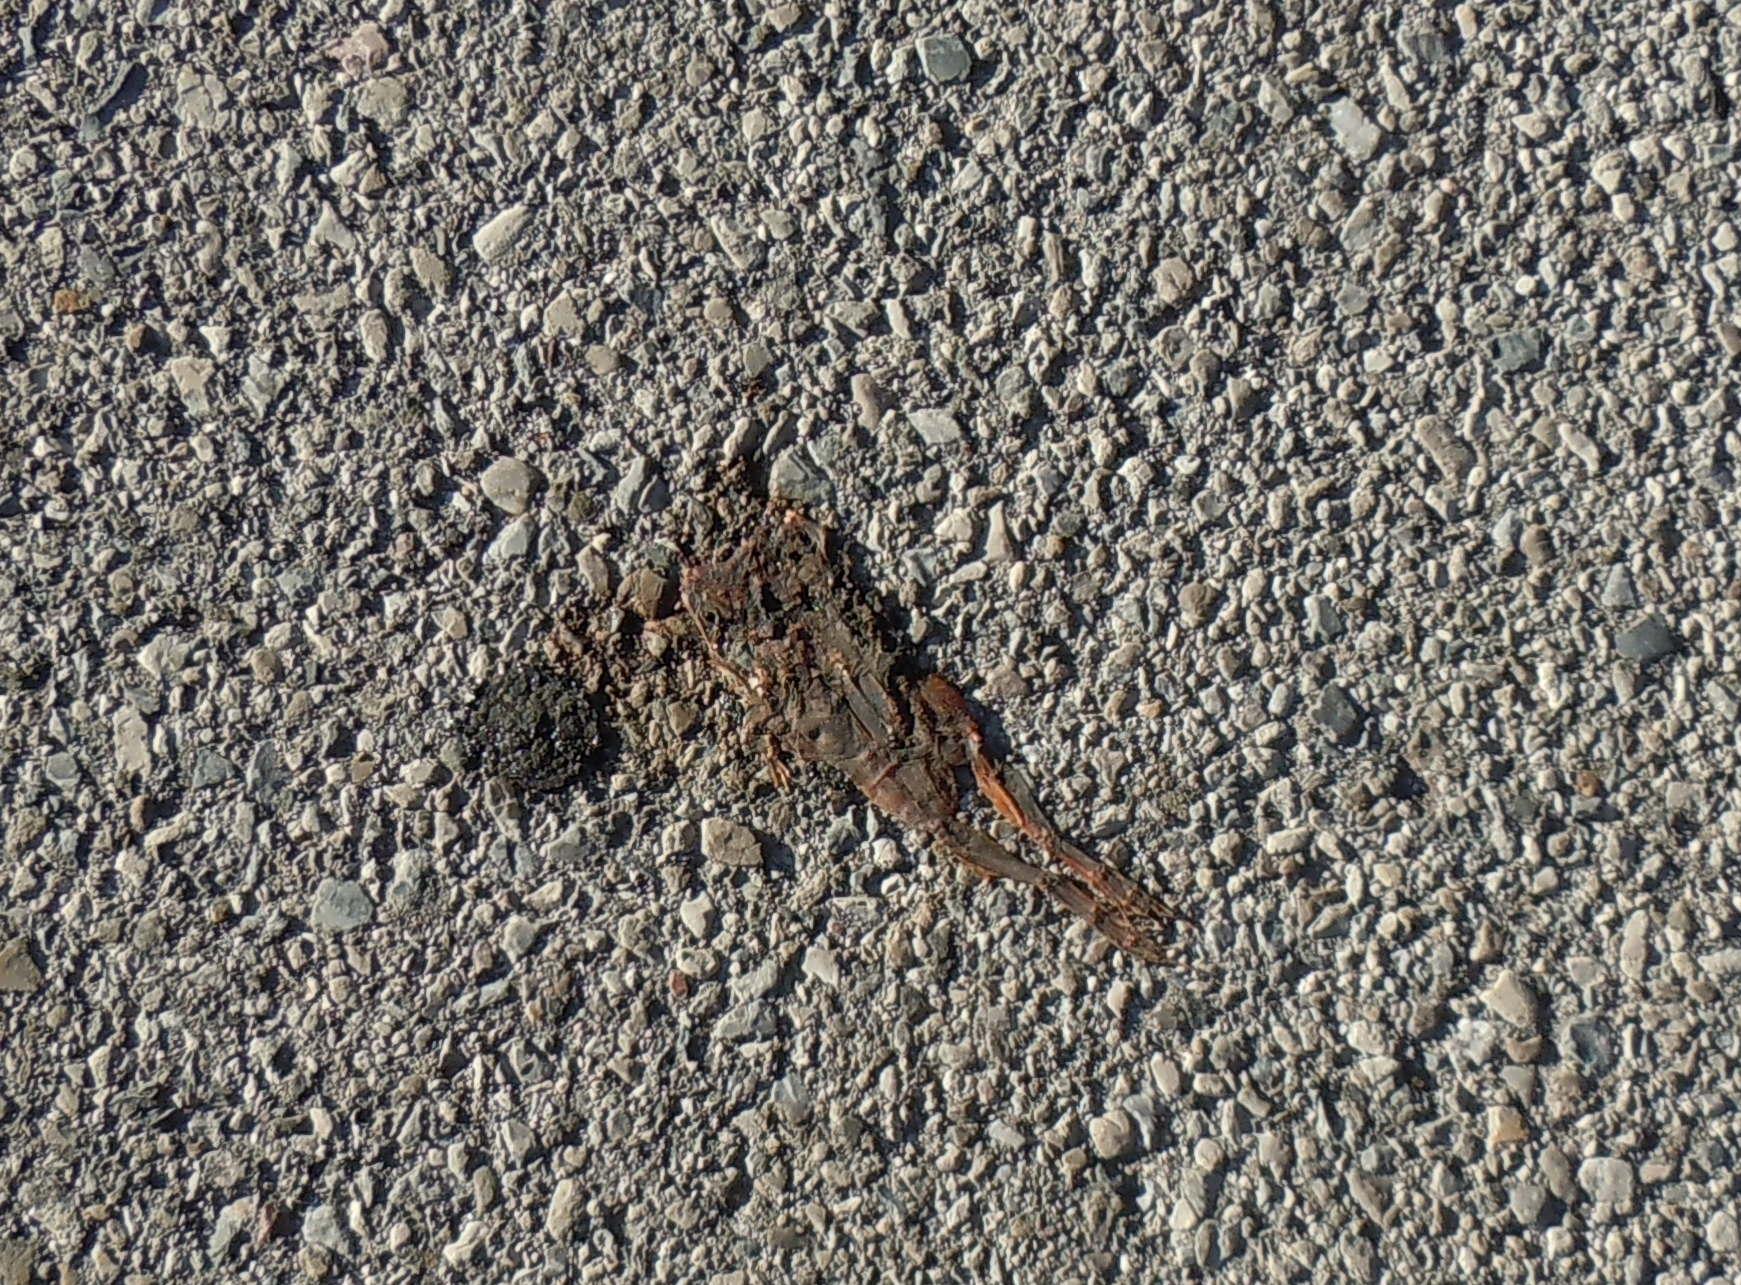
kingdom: Animalia
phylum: Chordata
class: Amphibia
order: Anura
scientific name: Anura
